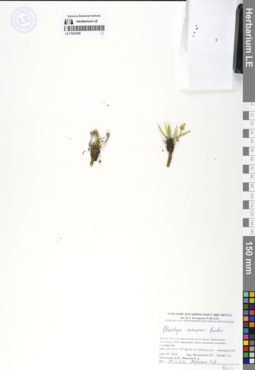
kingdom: Plantae
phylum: Tracheophyta
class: Magnoliopsida
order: Lamiales
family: Plantaginaceae
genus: Plantago
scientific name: Plantago komarovii
